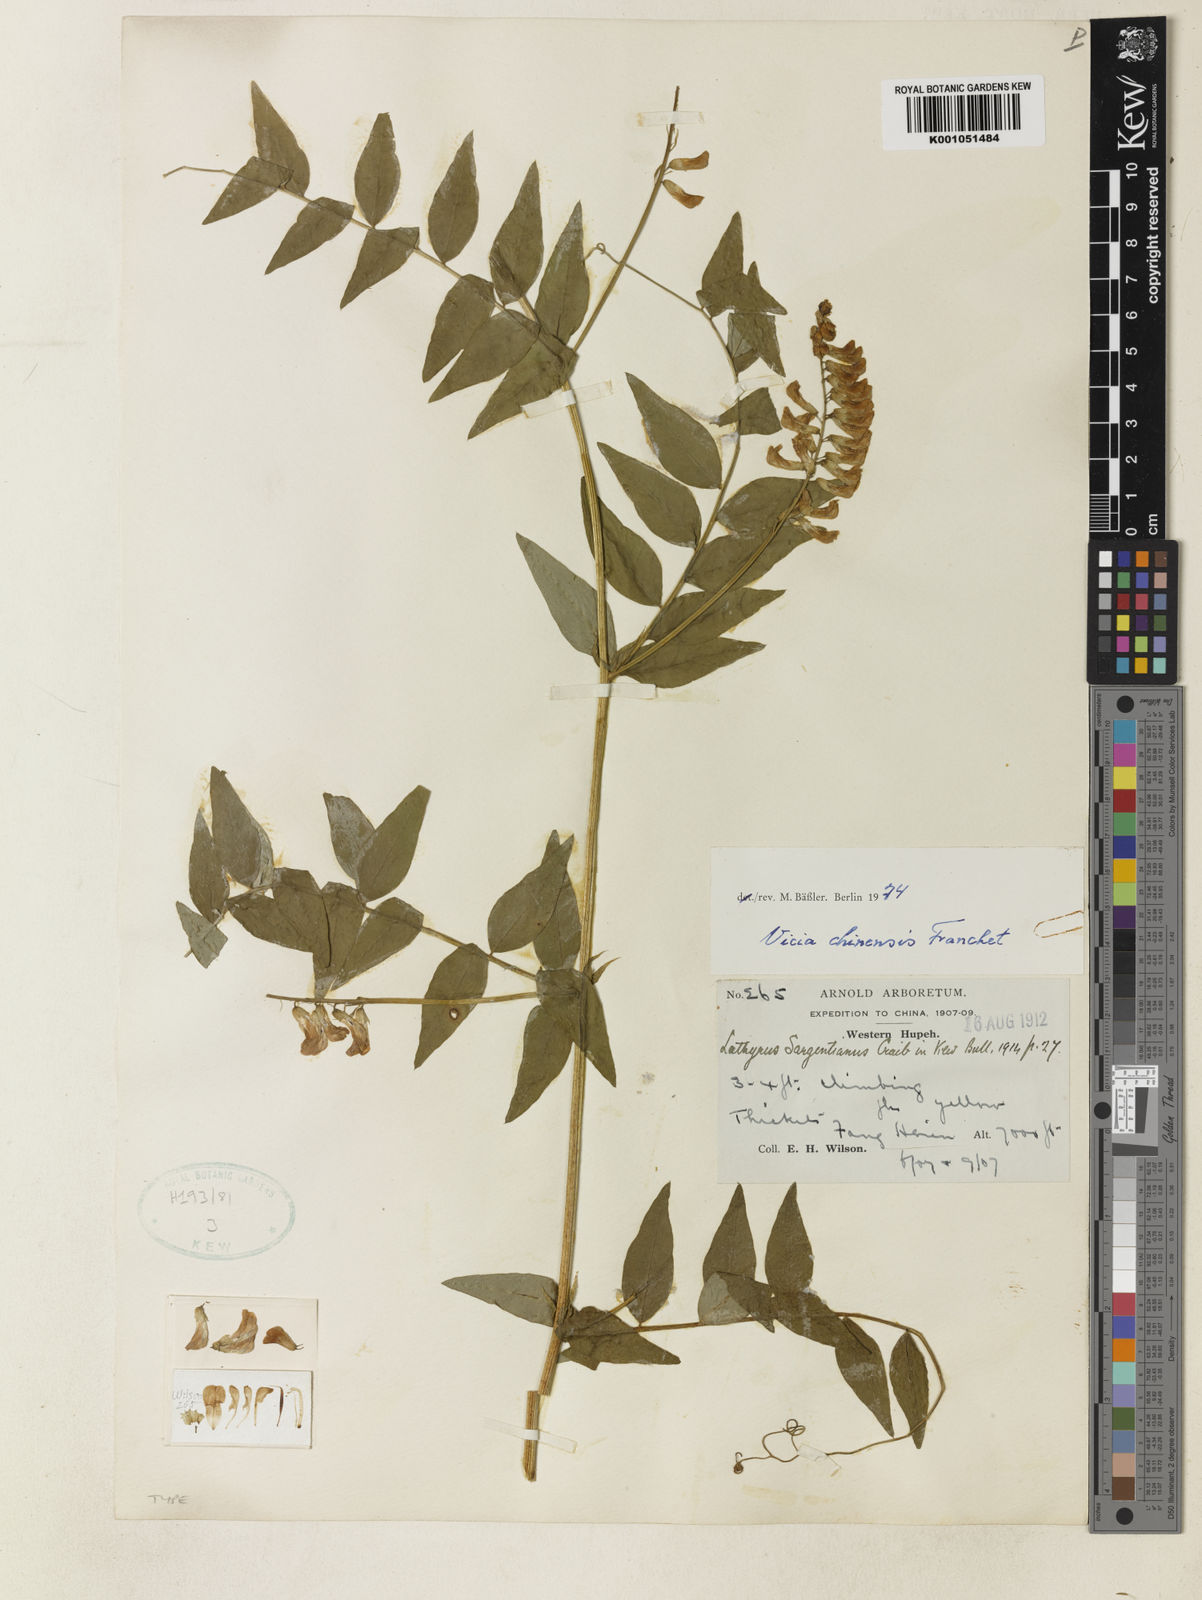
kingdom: Plantae
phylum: Tracheophyta
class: Magnoliopsida
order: Fabales
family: Fabaceae
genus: Vicia
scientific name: Vicia chinensis
